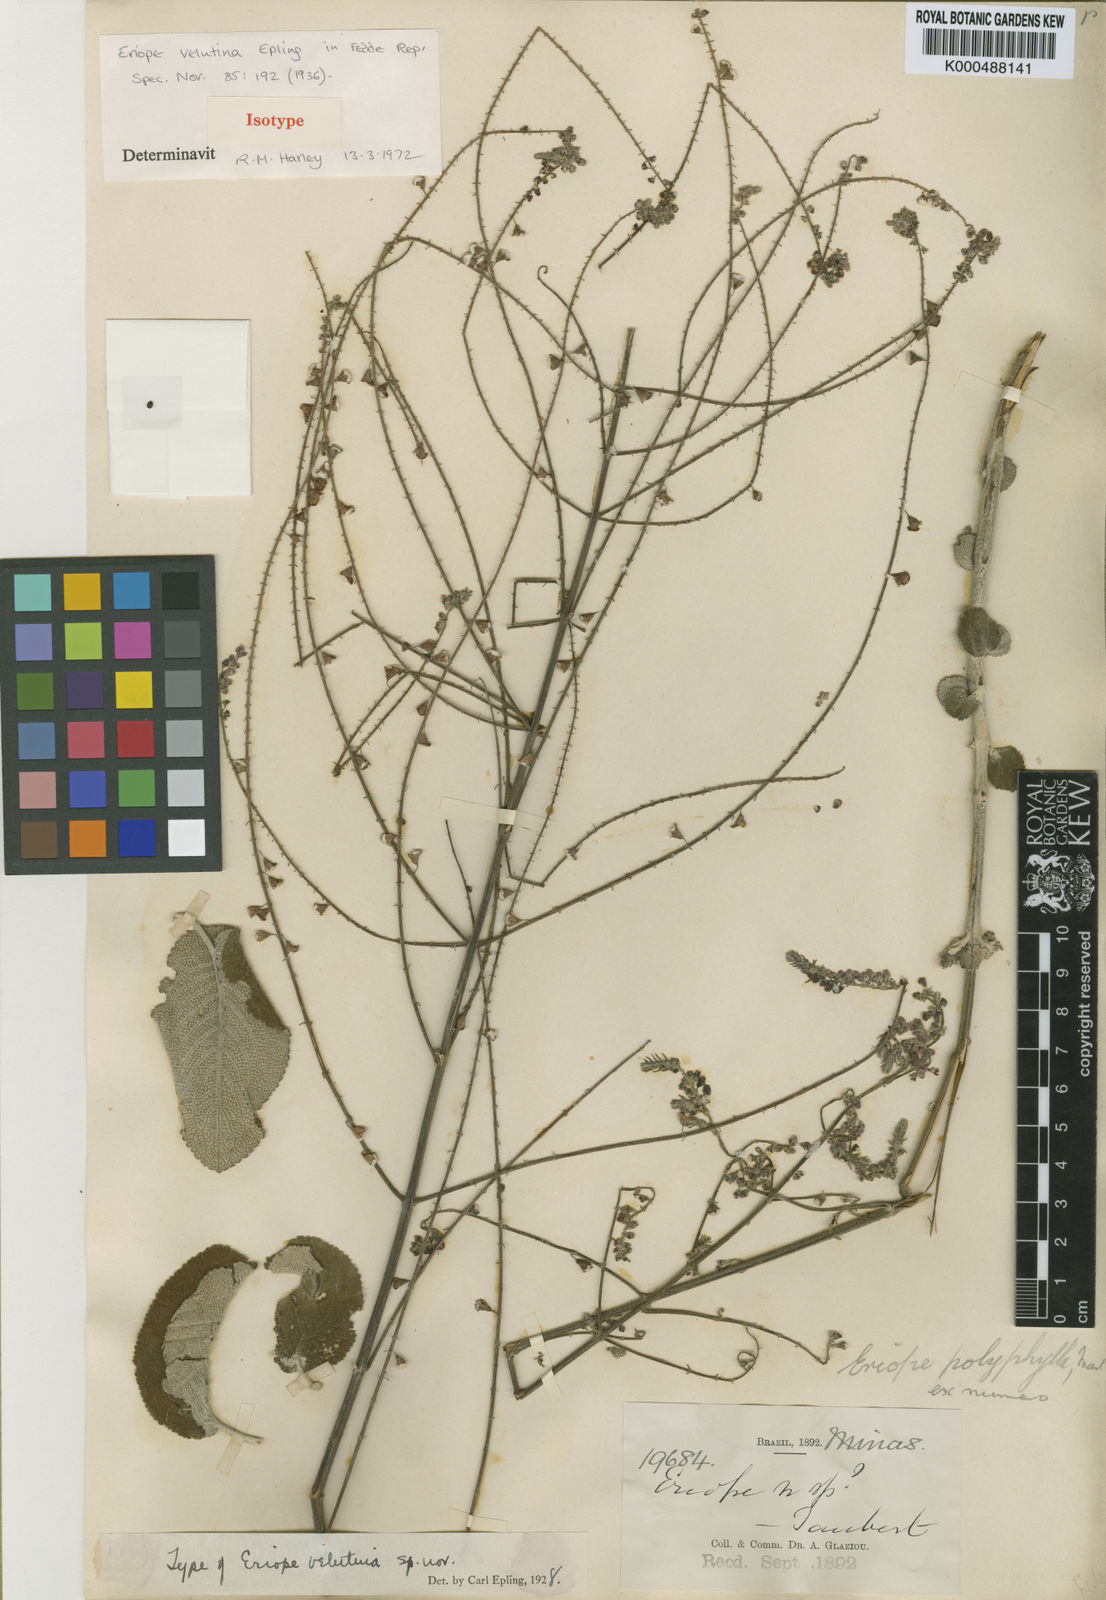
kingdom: Plantae
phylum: Tracheophyta
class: Magnoliopsida
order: Lamiales
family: Lamiaceae
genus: Eriope
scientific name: Eriope velutina
